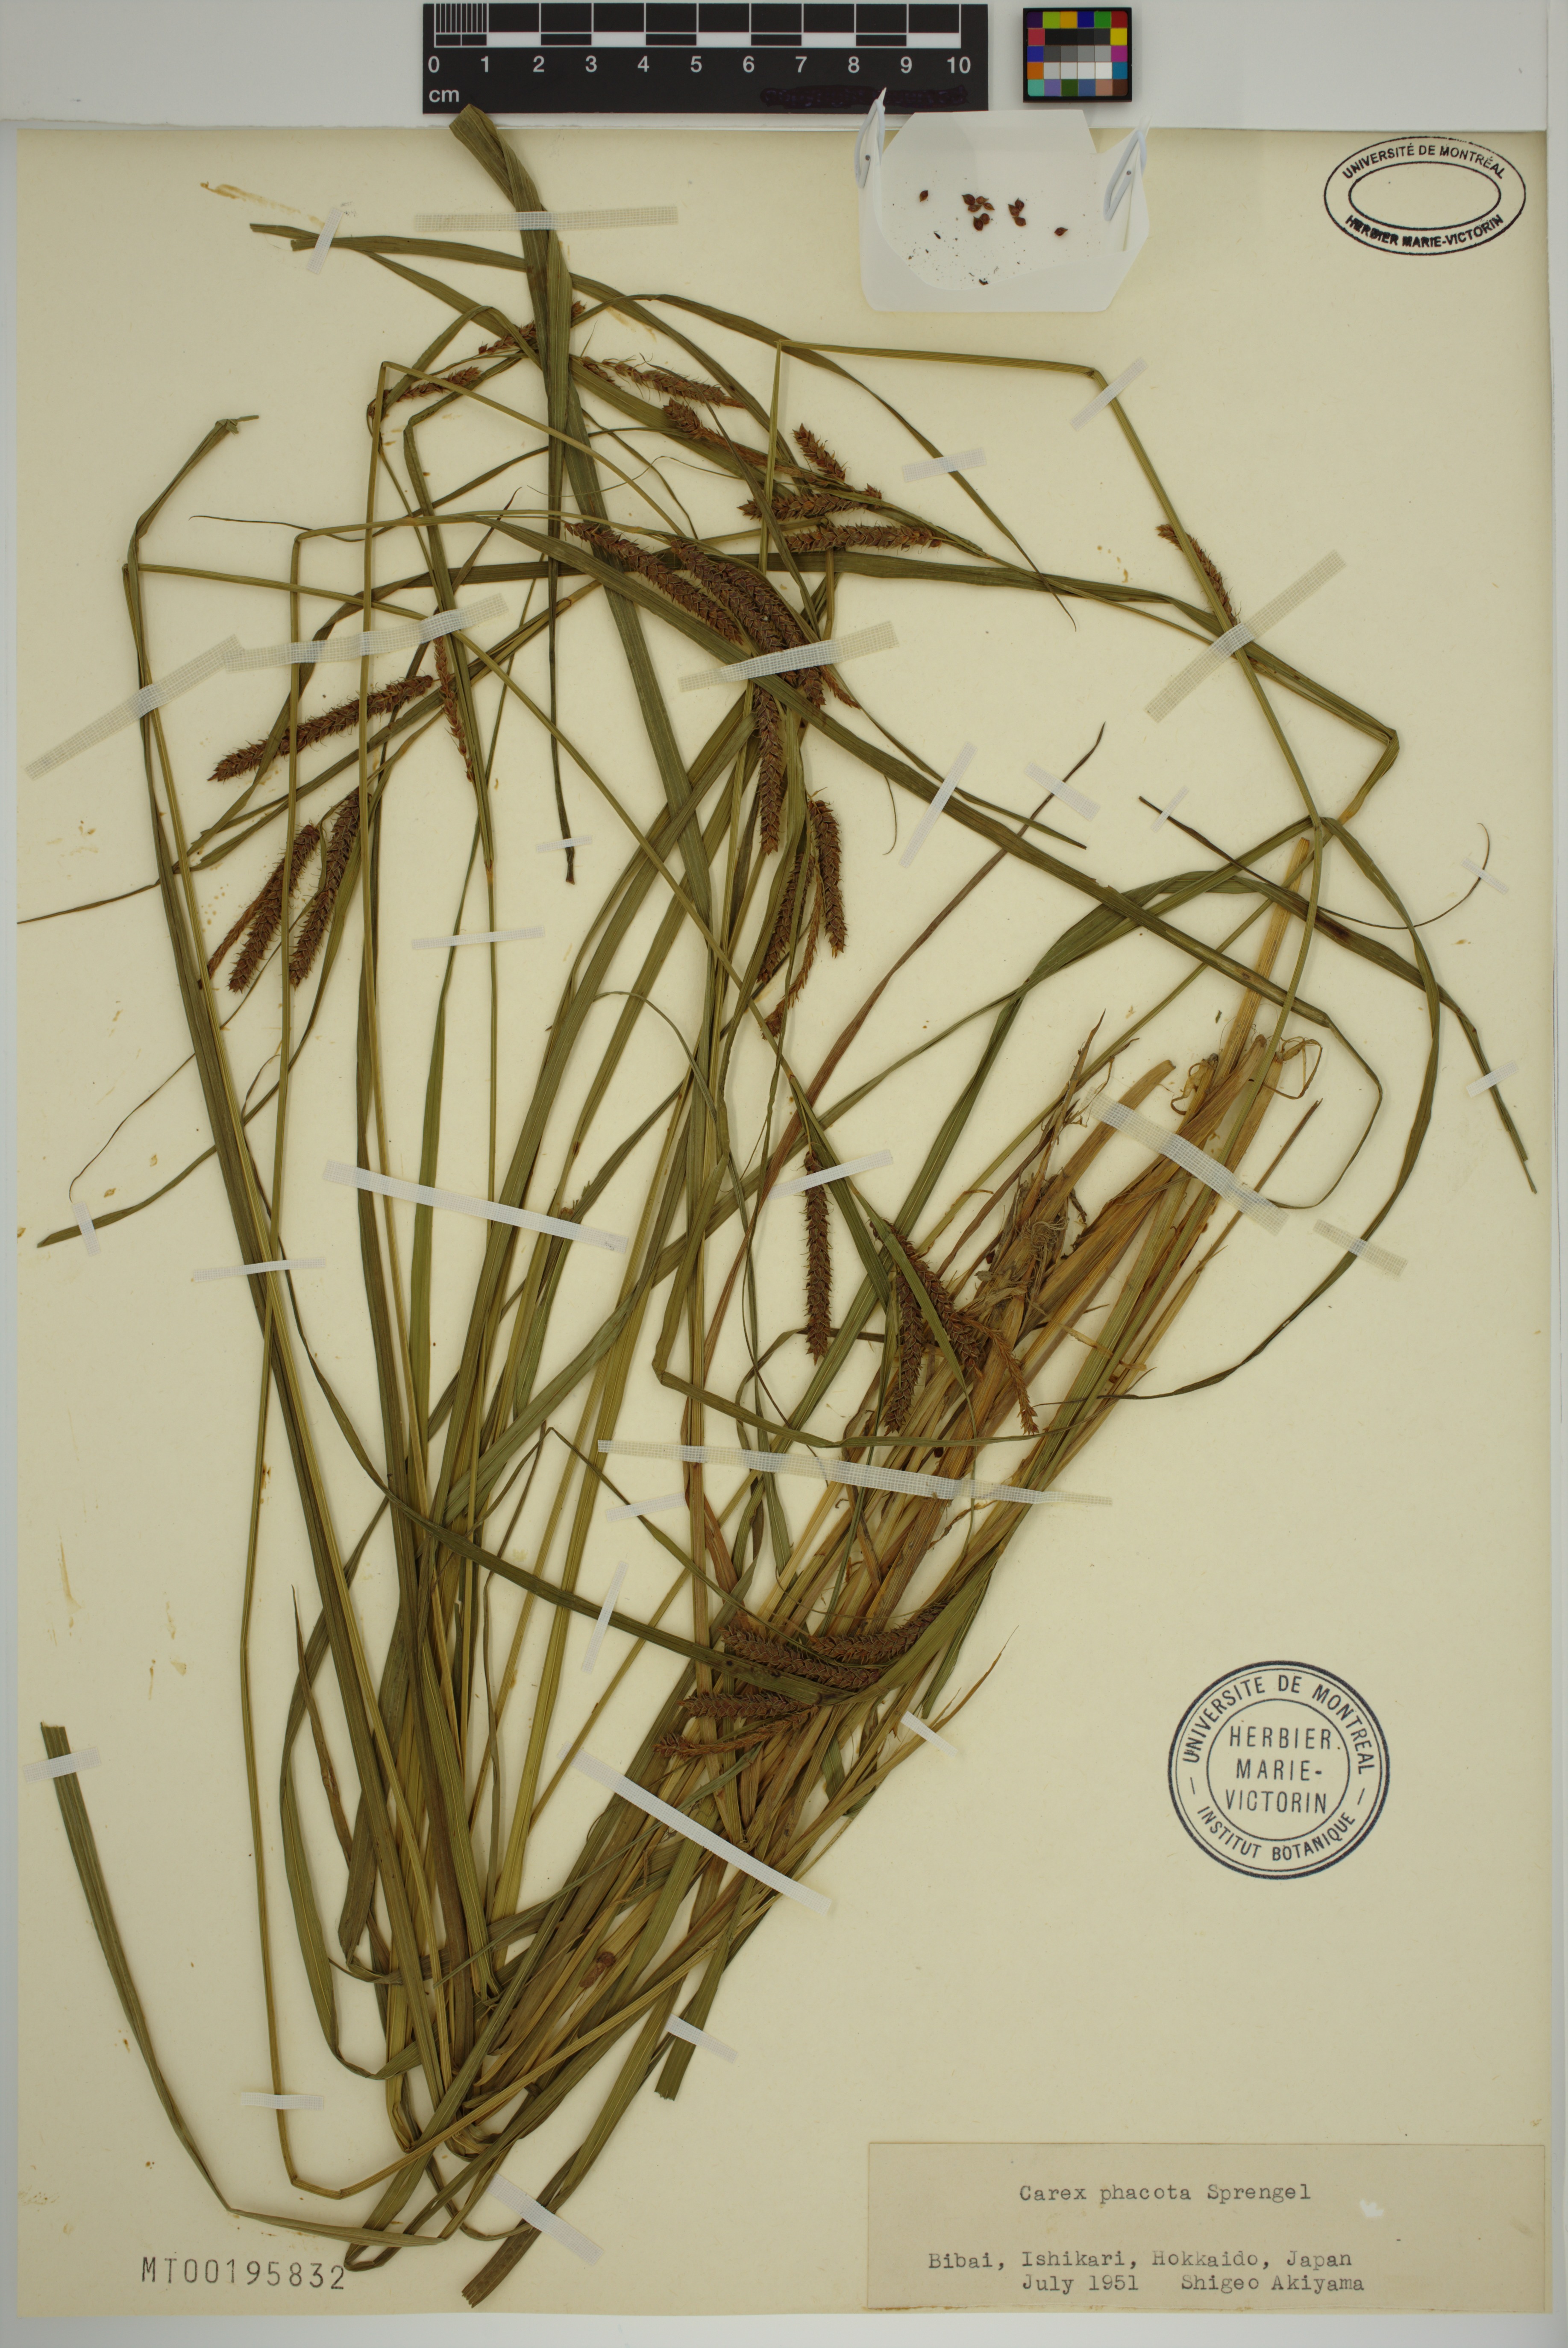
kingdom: Plantae
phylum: Tracheophyta
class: Liliopsida
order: Poales
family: Cyperaceae
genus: Carex
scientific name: Carex phacota
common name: Lakeshore sedge
